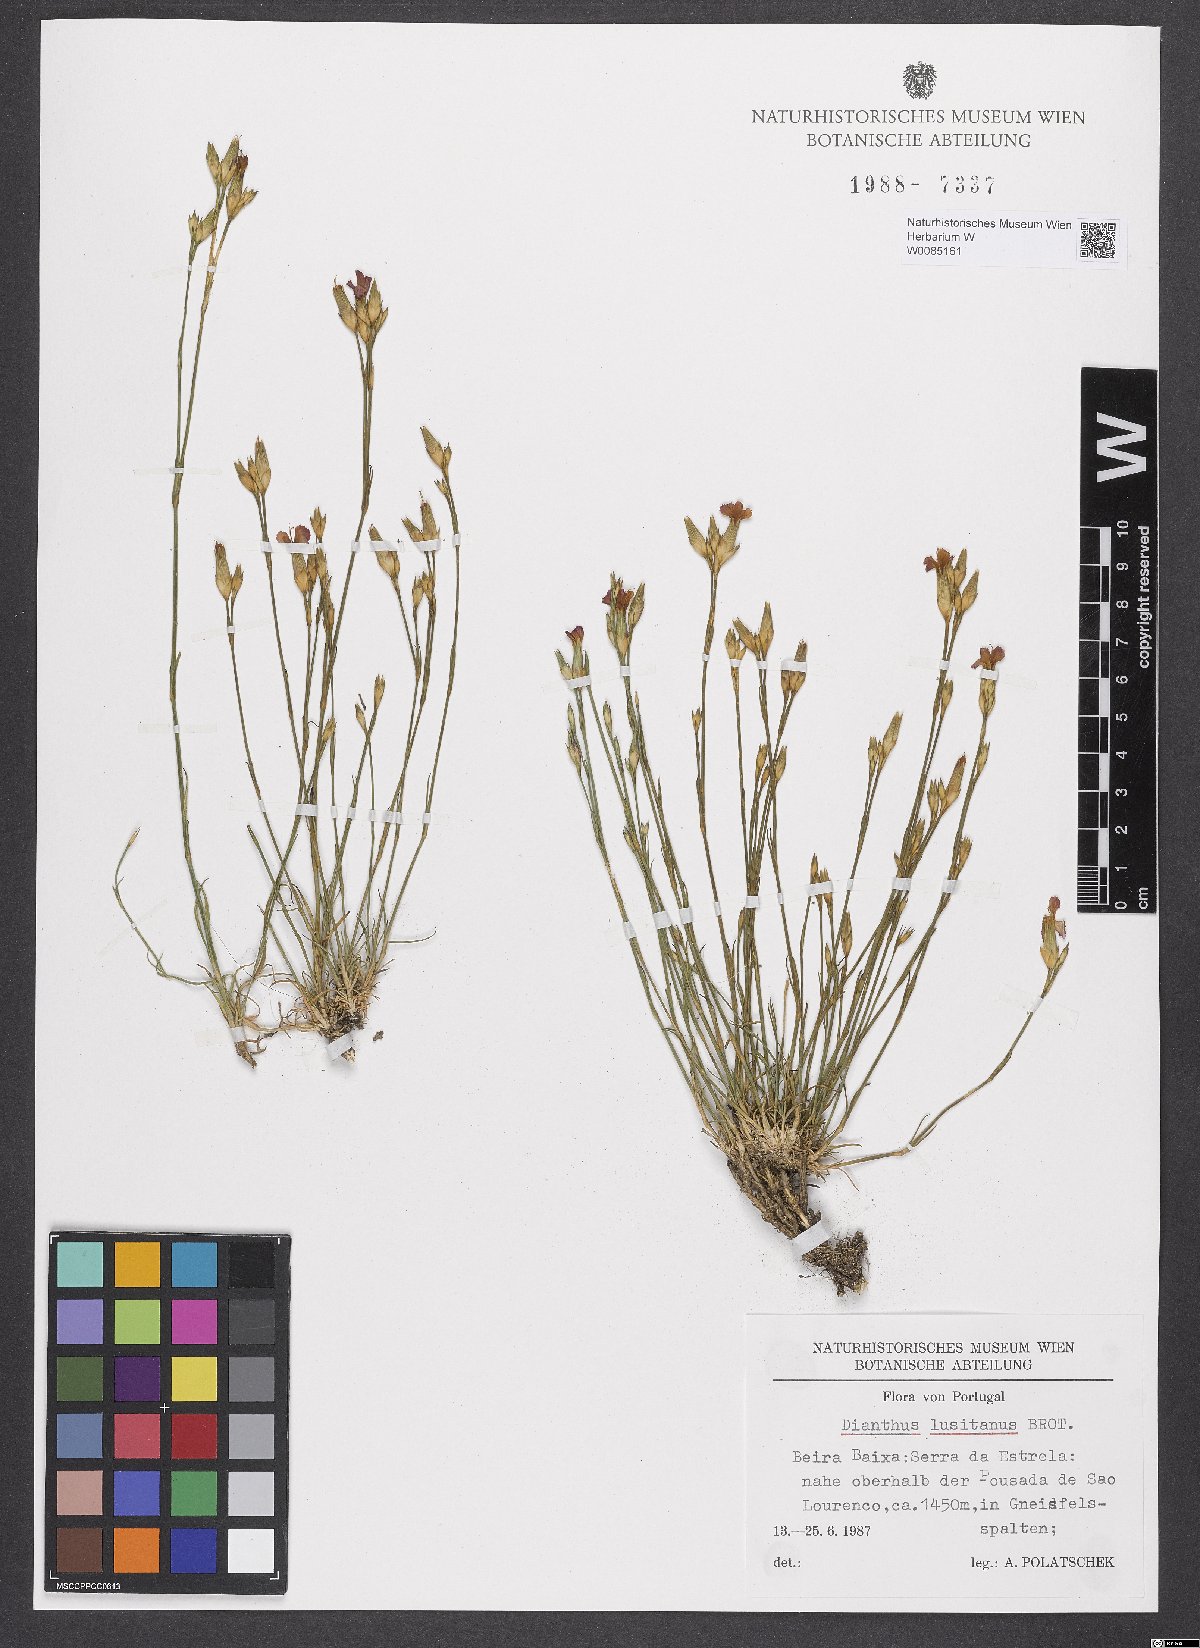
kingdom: Plantae
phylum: Tracheophyta
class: Magnoliopsida
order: Caryophyllales
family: Caryophyllaceae
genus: Dianthus
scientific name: Dianthus lusitanus
